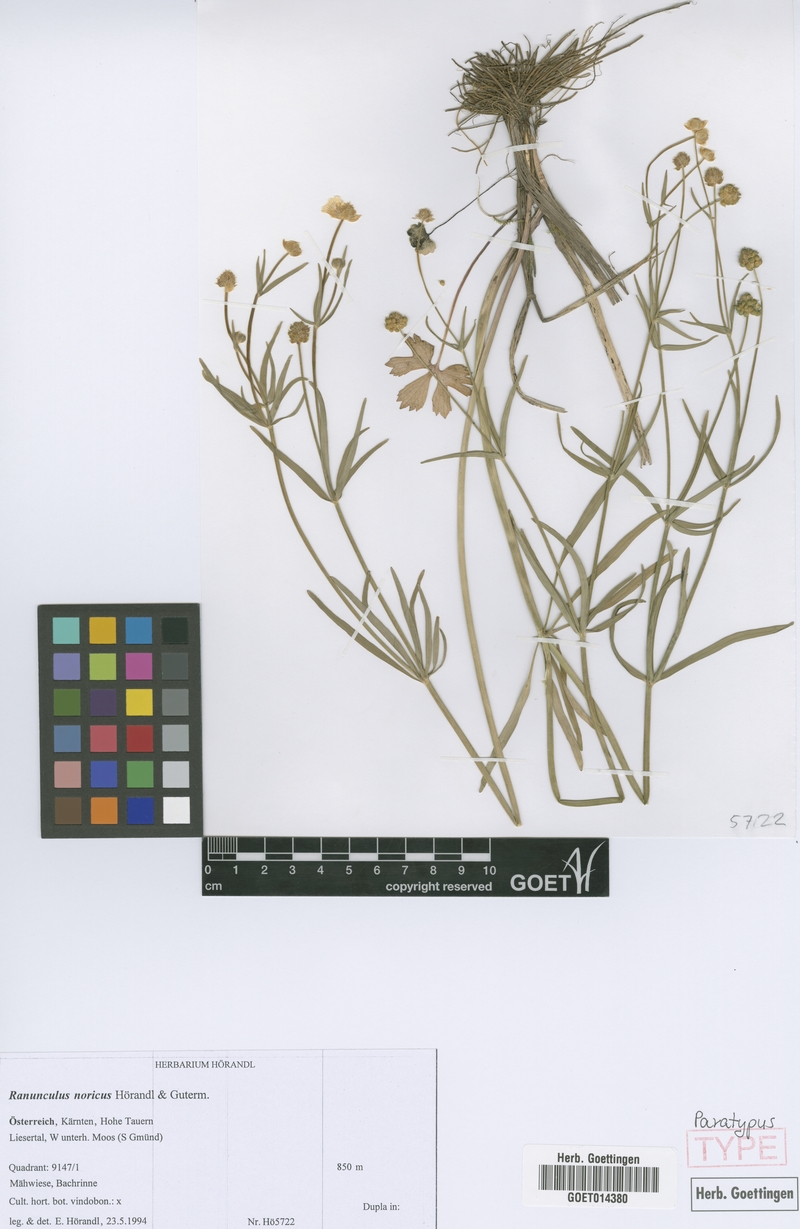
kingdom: Plantae
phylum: Tracheophyta
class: Magnoliopsida
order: Ranunculales
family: Ranunculaceae
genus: Ranunculus
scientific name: Ranunculus noricus
